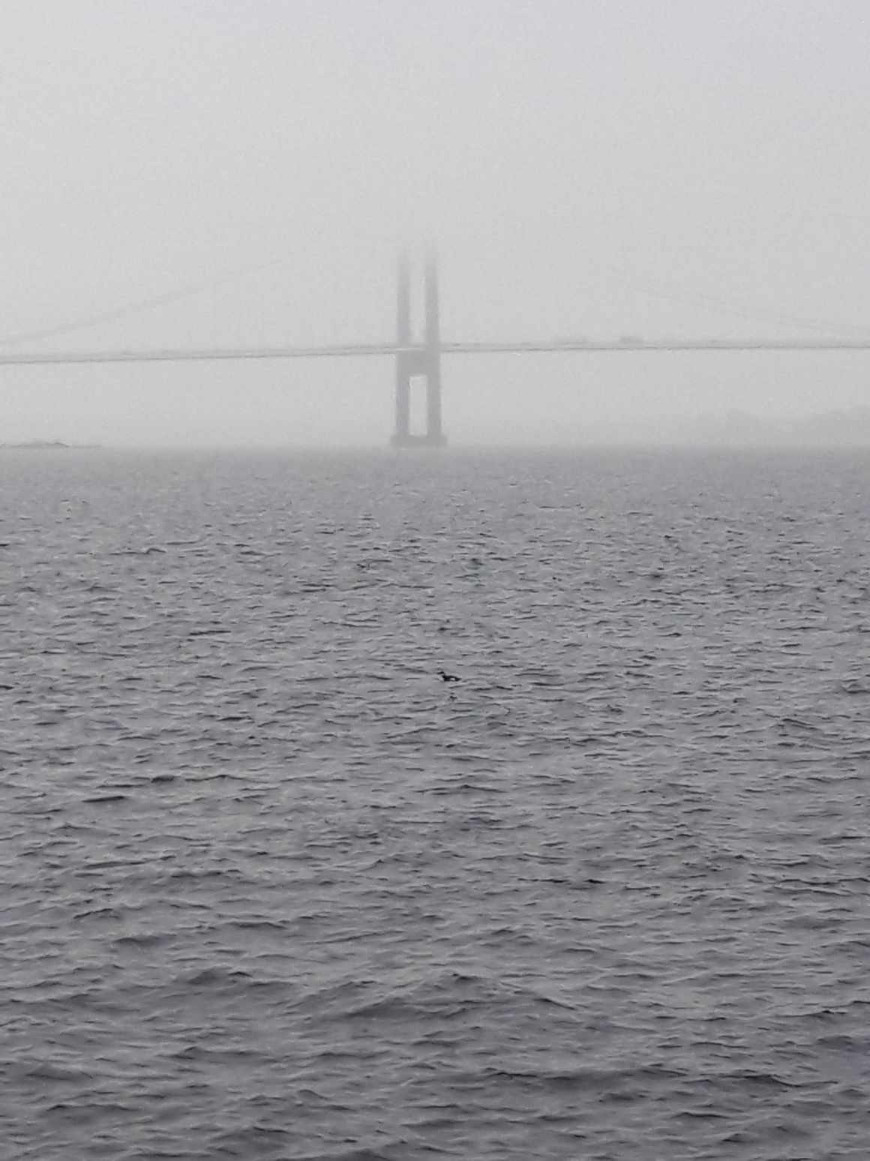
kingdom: Animalia
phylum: Chordata
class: Aves
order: Charadriiformes
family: Alcidae
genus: Alca
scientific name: Alca torda
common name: Alk
